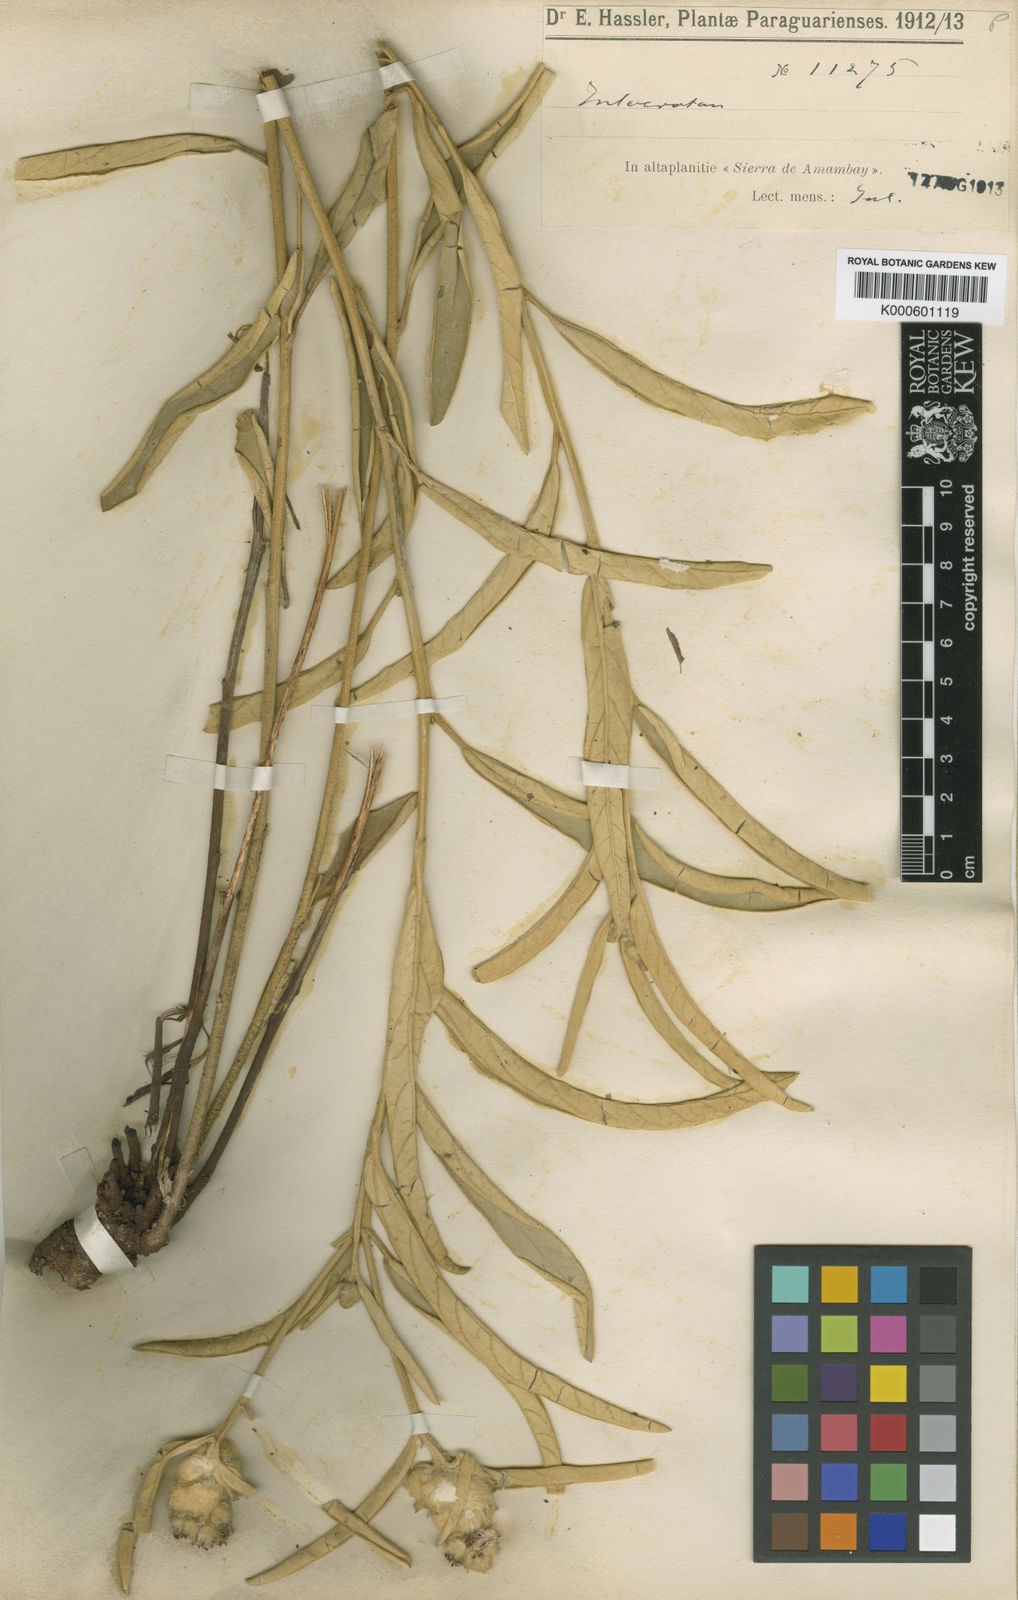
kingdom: Plantae
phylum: Tracheophyta
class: Magnoliopsida
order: Malpighiales
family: Euphorbiaceae
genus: Croton
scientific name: Croton
